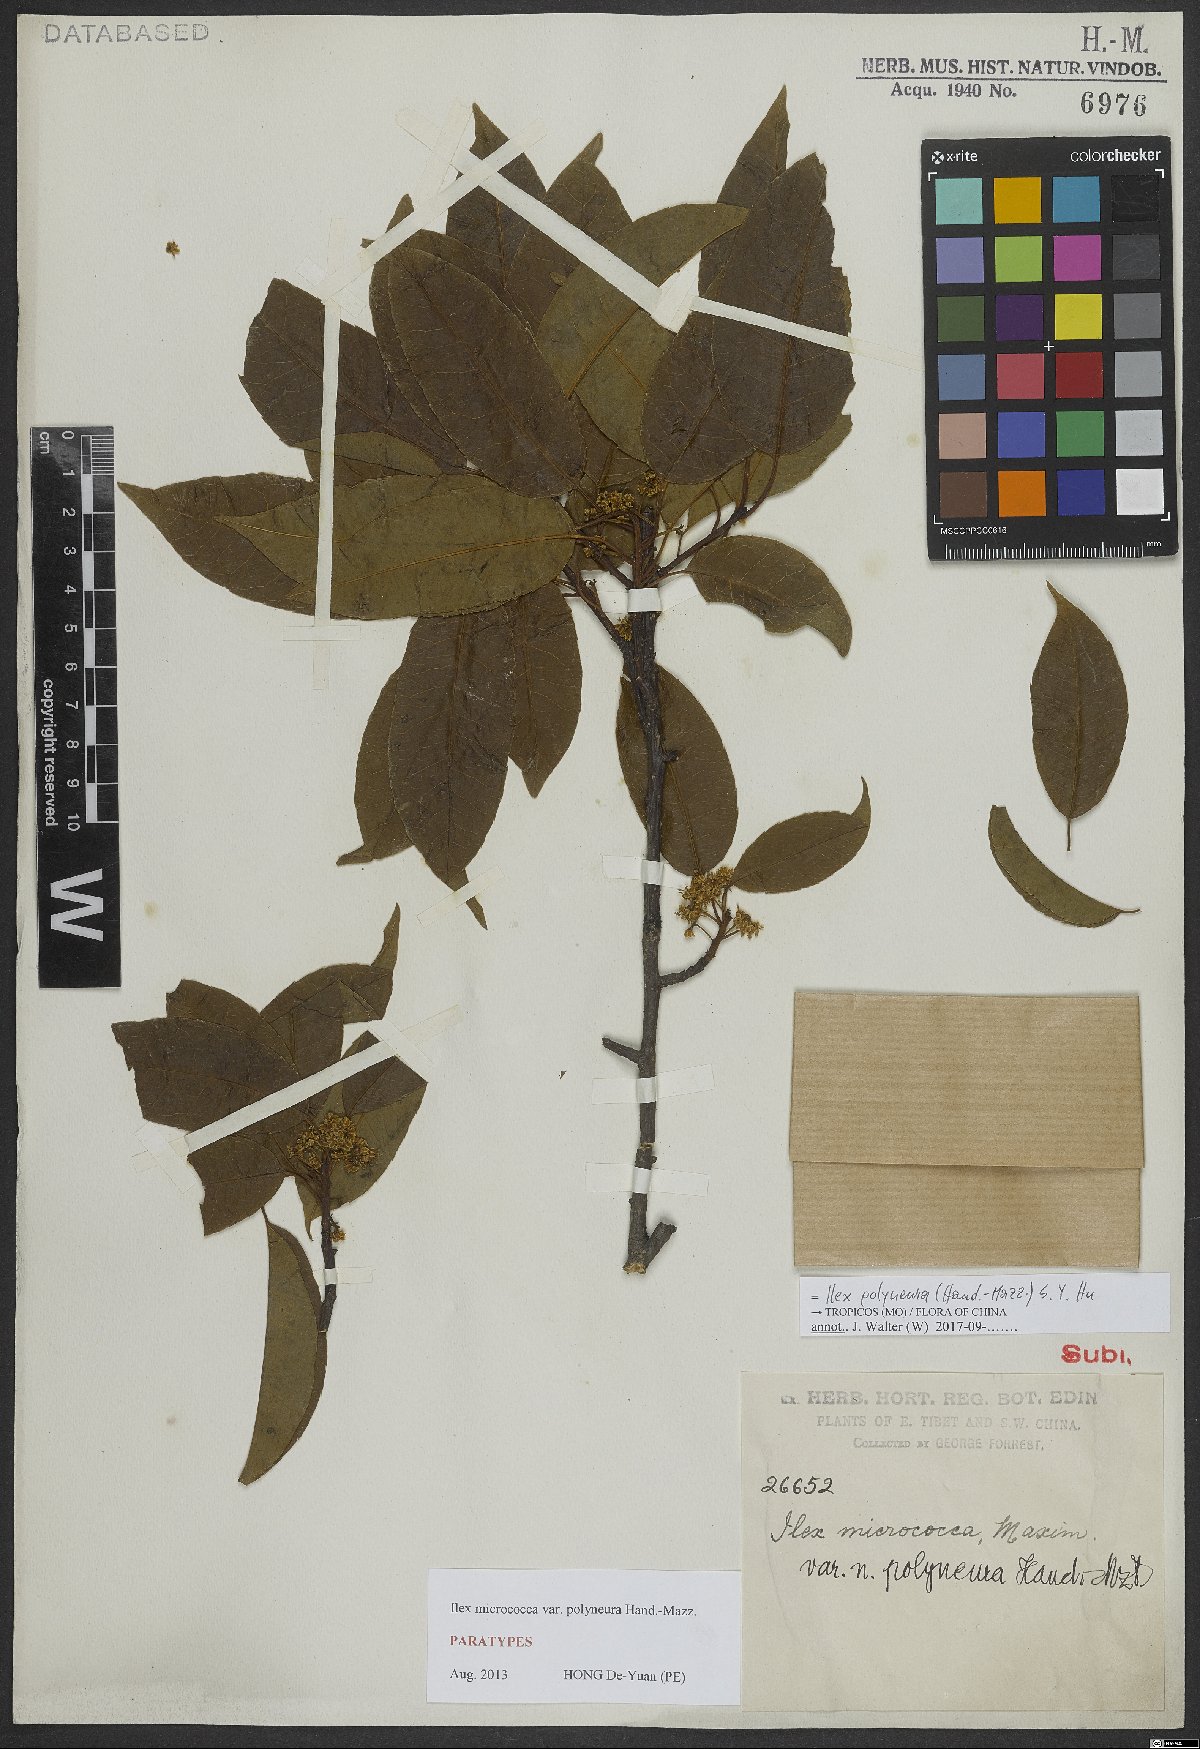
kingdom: Plantae
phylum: Tracheophyta
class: Magnoliopsida
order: Aquifoliales
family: Aquifoliaceae
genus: Ilex
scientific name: Ilex micrococca
